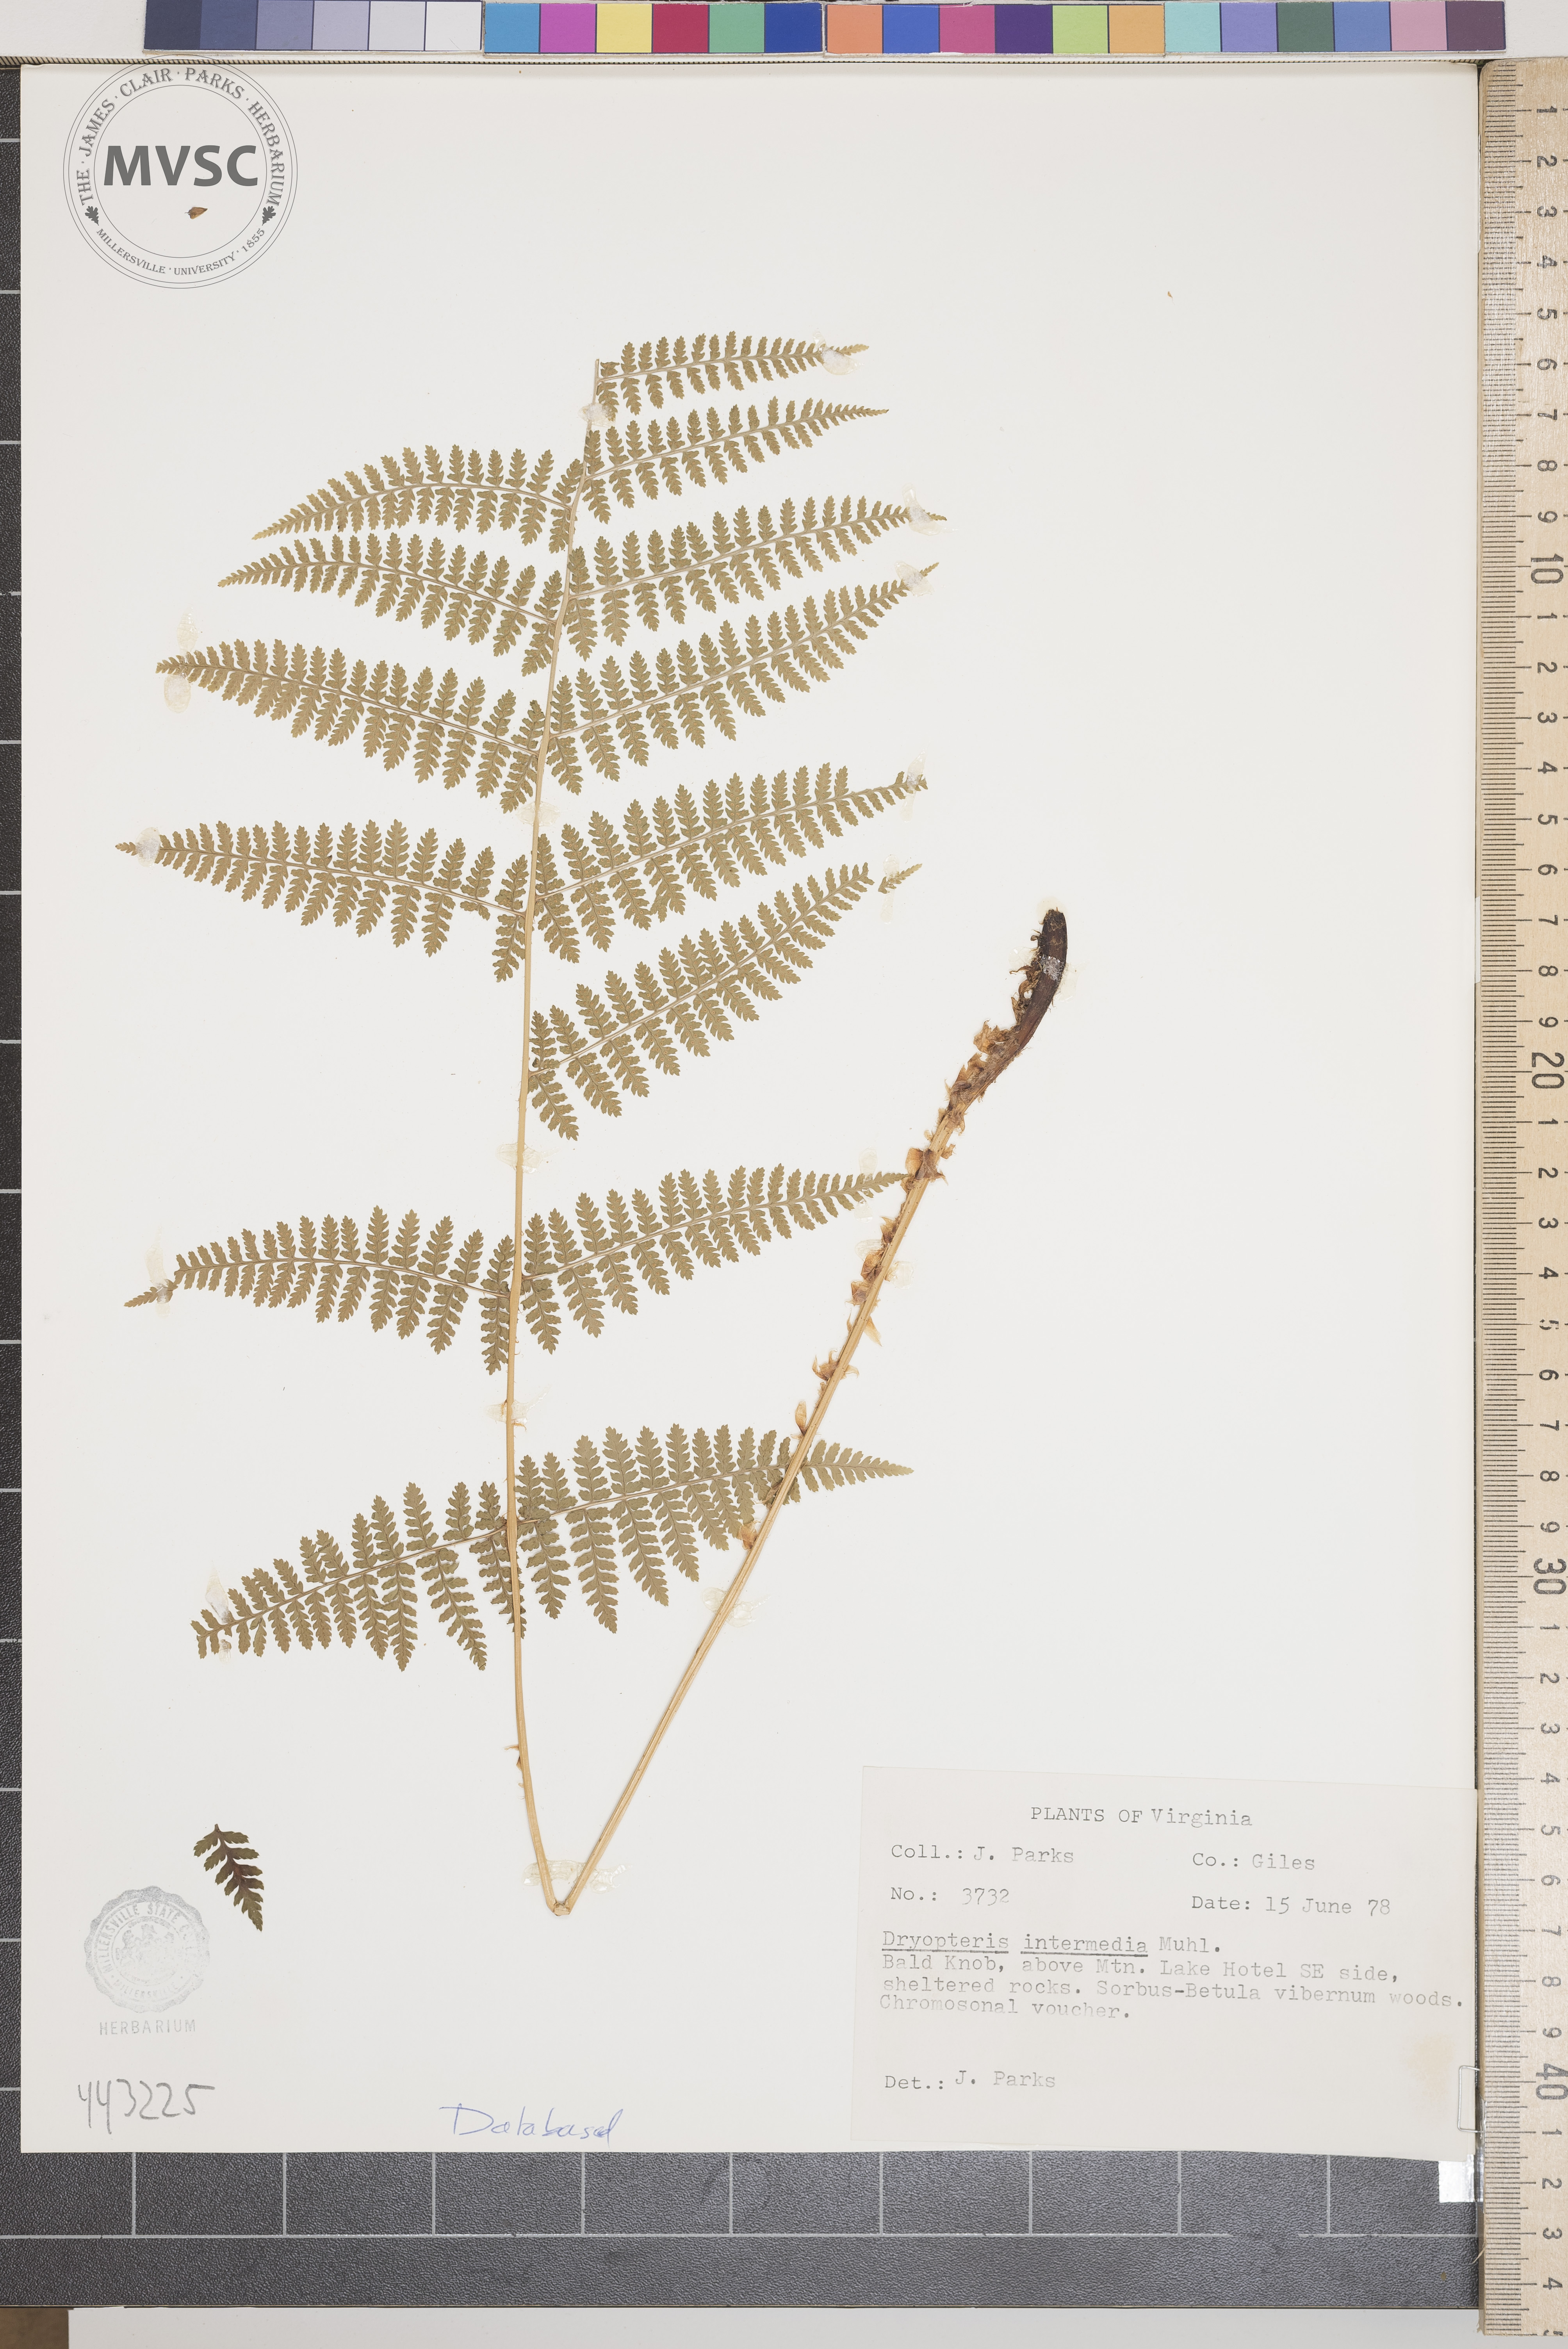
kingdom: Plantae
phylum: Tracheophyta
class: Polypodiopsida
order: Polypodiales
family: Dryopteridaceae
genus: Dryopteris
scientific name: Dryopteris intermedia
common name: Evergreen wood fern
